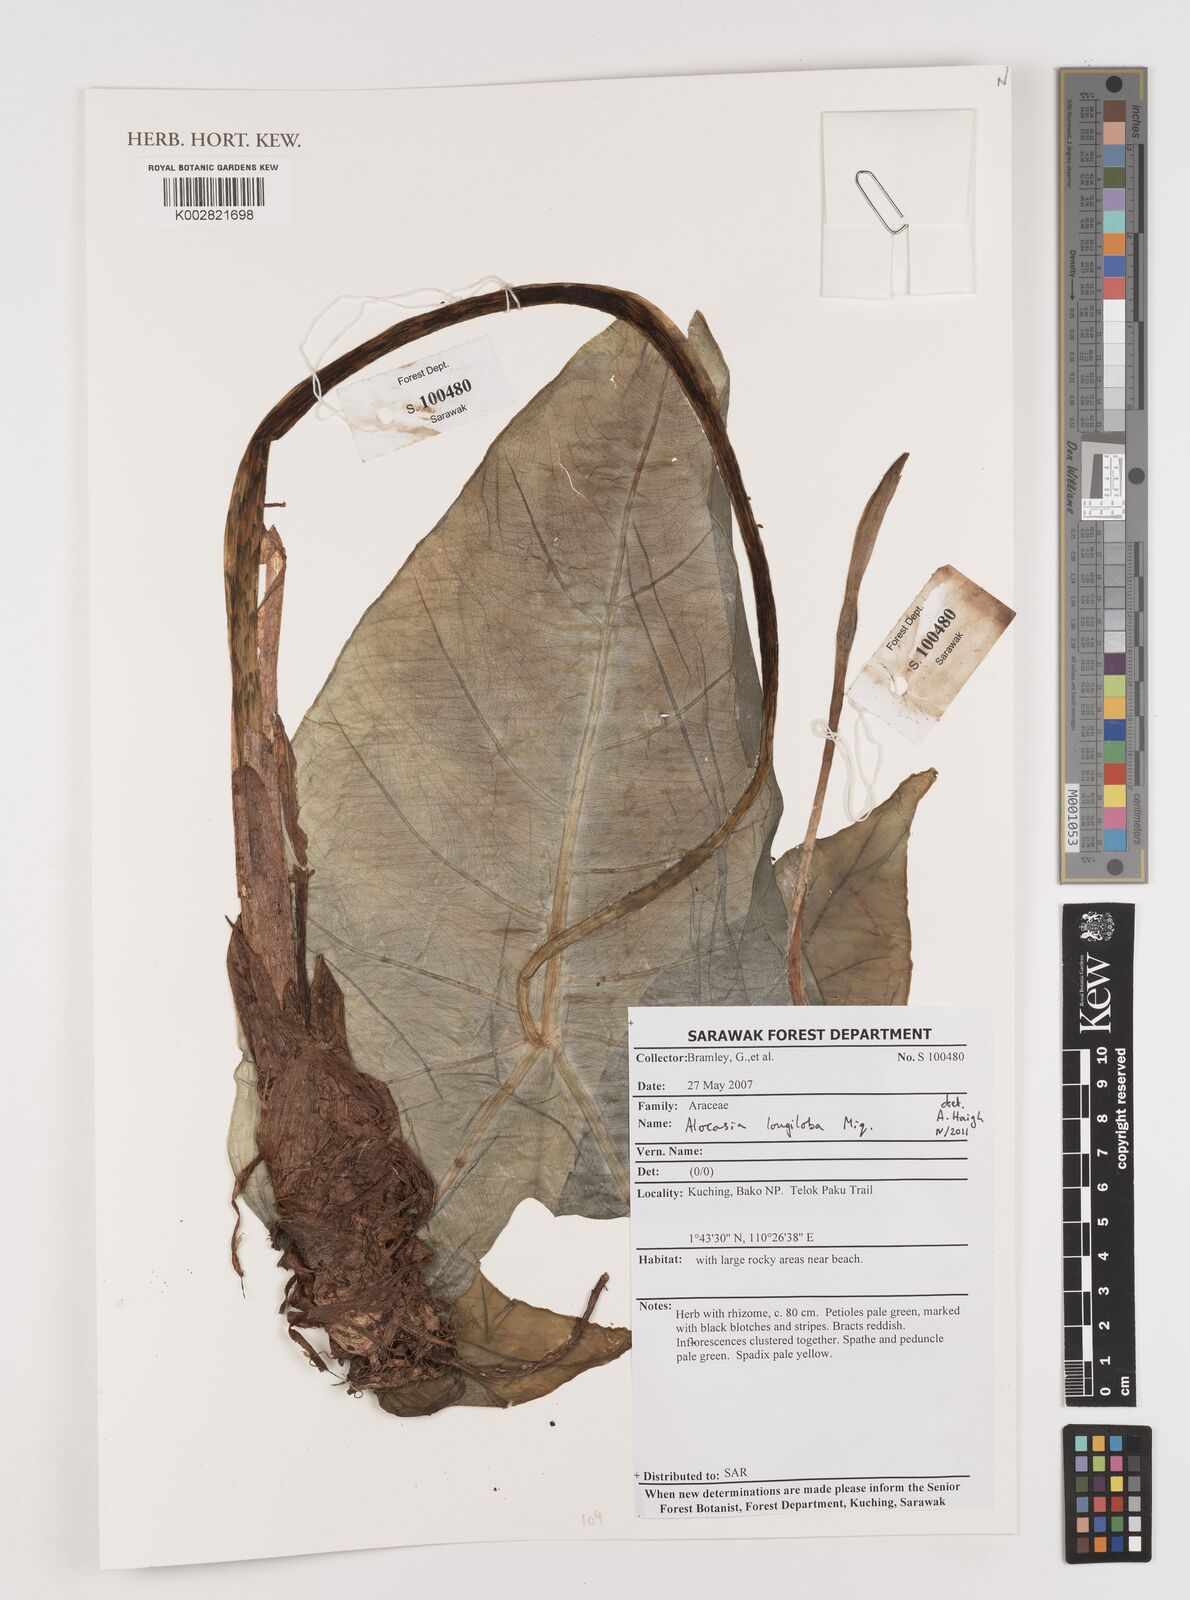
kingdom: Plantae
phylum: Tracheophyta
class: Liliopsida
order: Alismatales
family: Araceae
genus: Alocasia
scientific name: Alocasia longiloba
